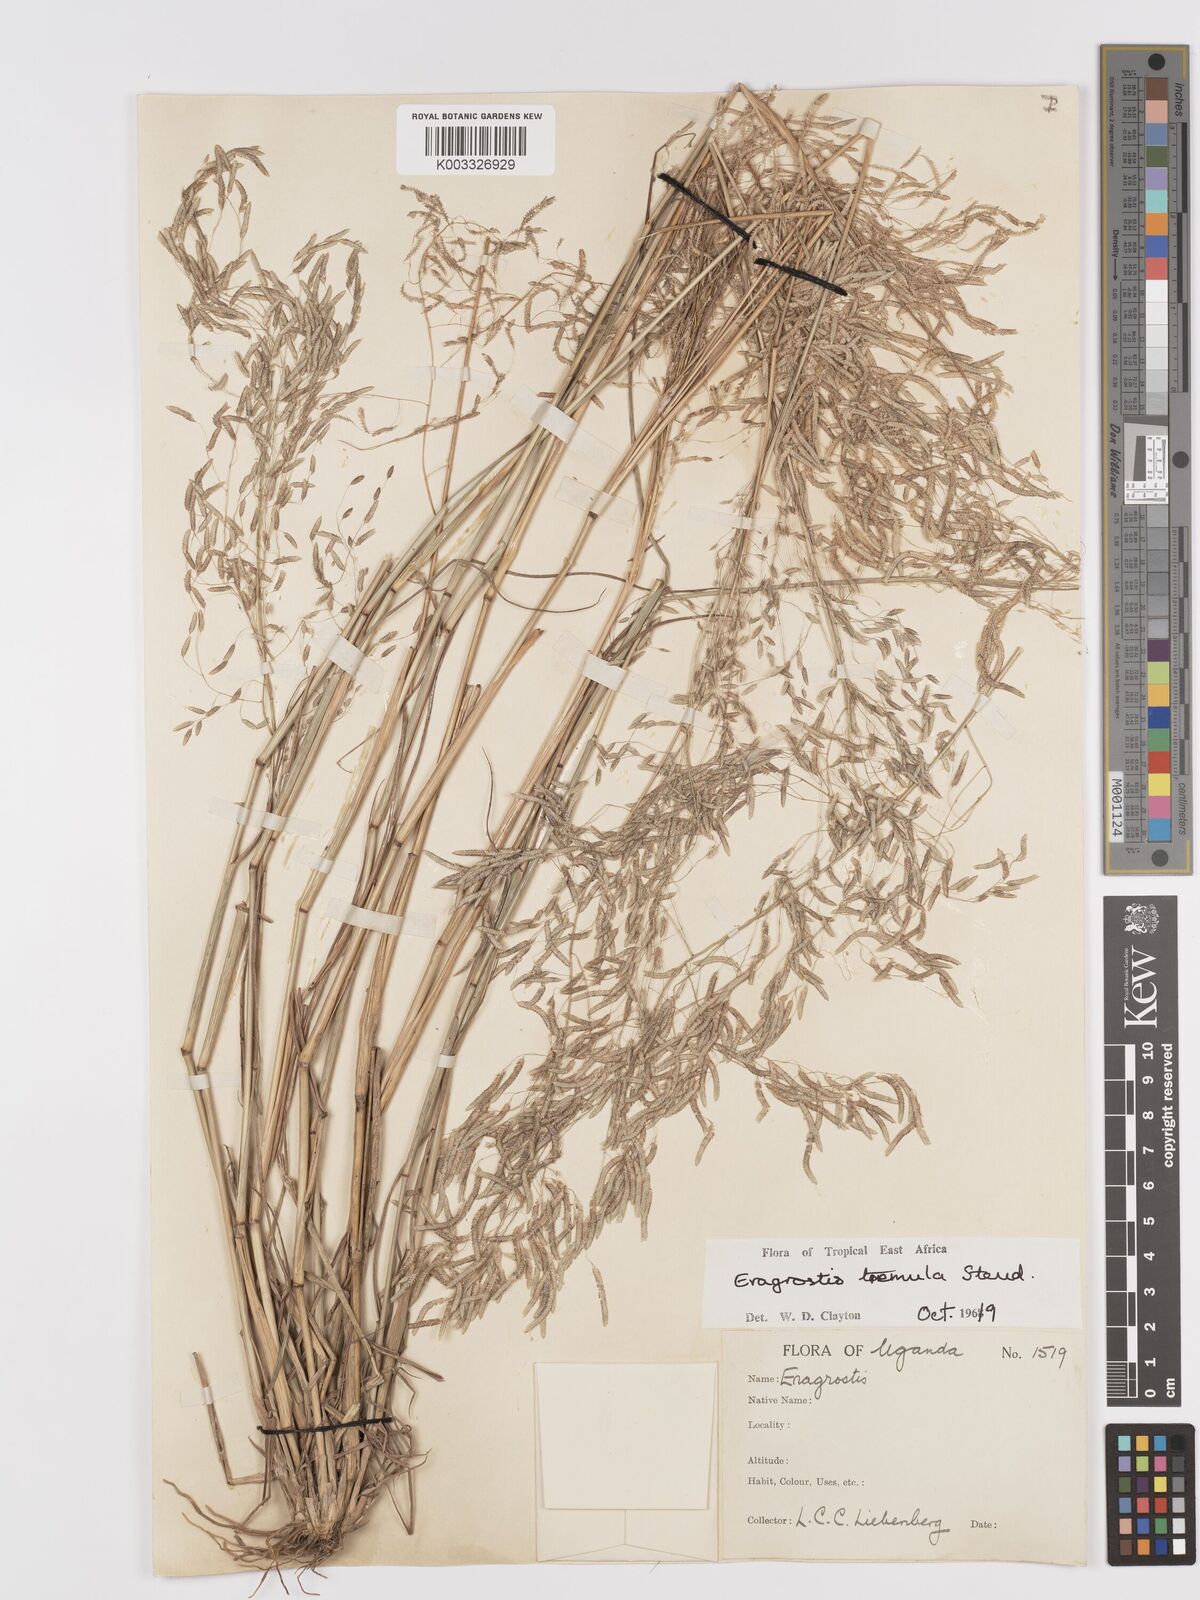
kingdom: Plantae
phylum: Tracheophyta
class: Liliopsida
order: Poales
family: Poaceae
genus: Eragrostis
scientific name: Eragrostis tremula
